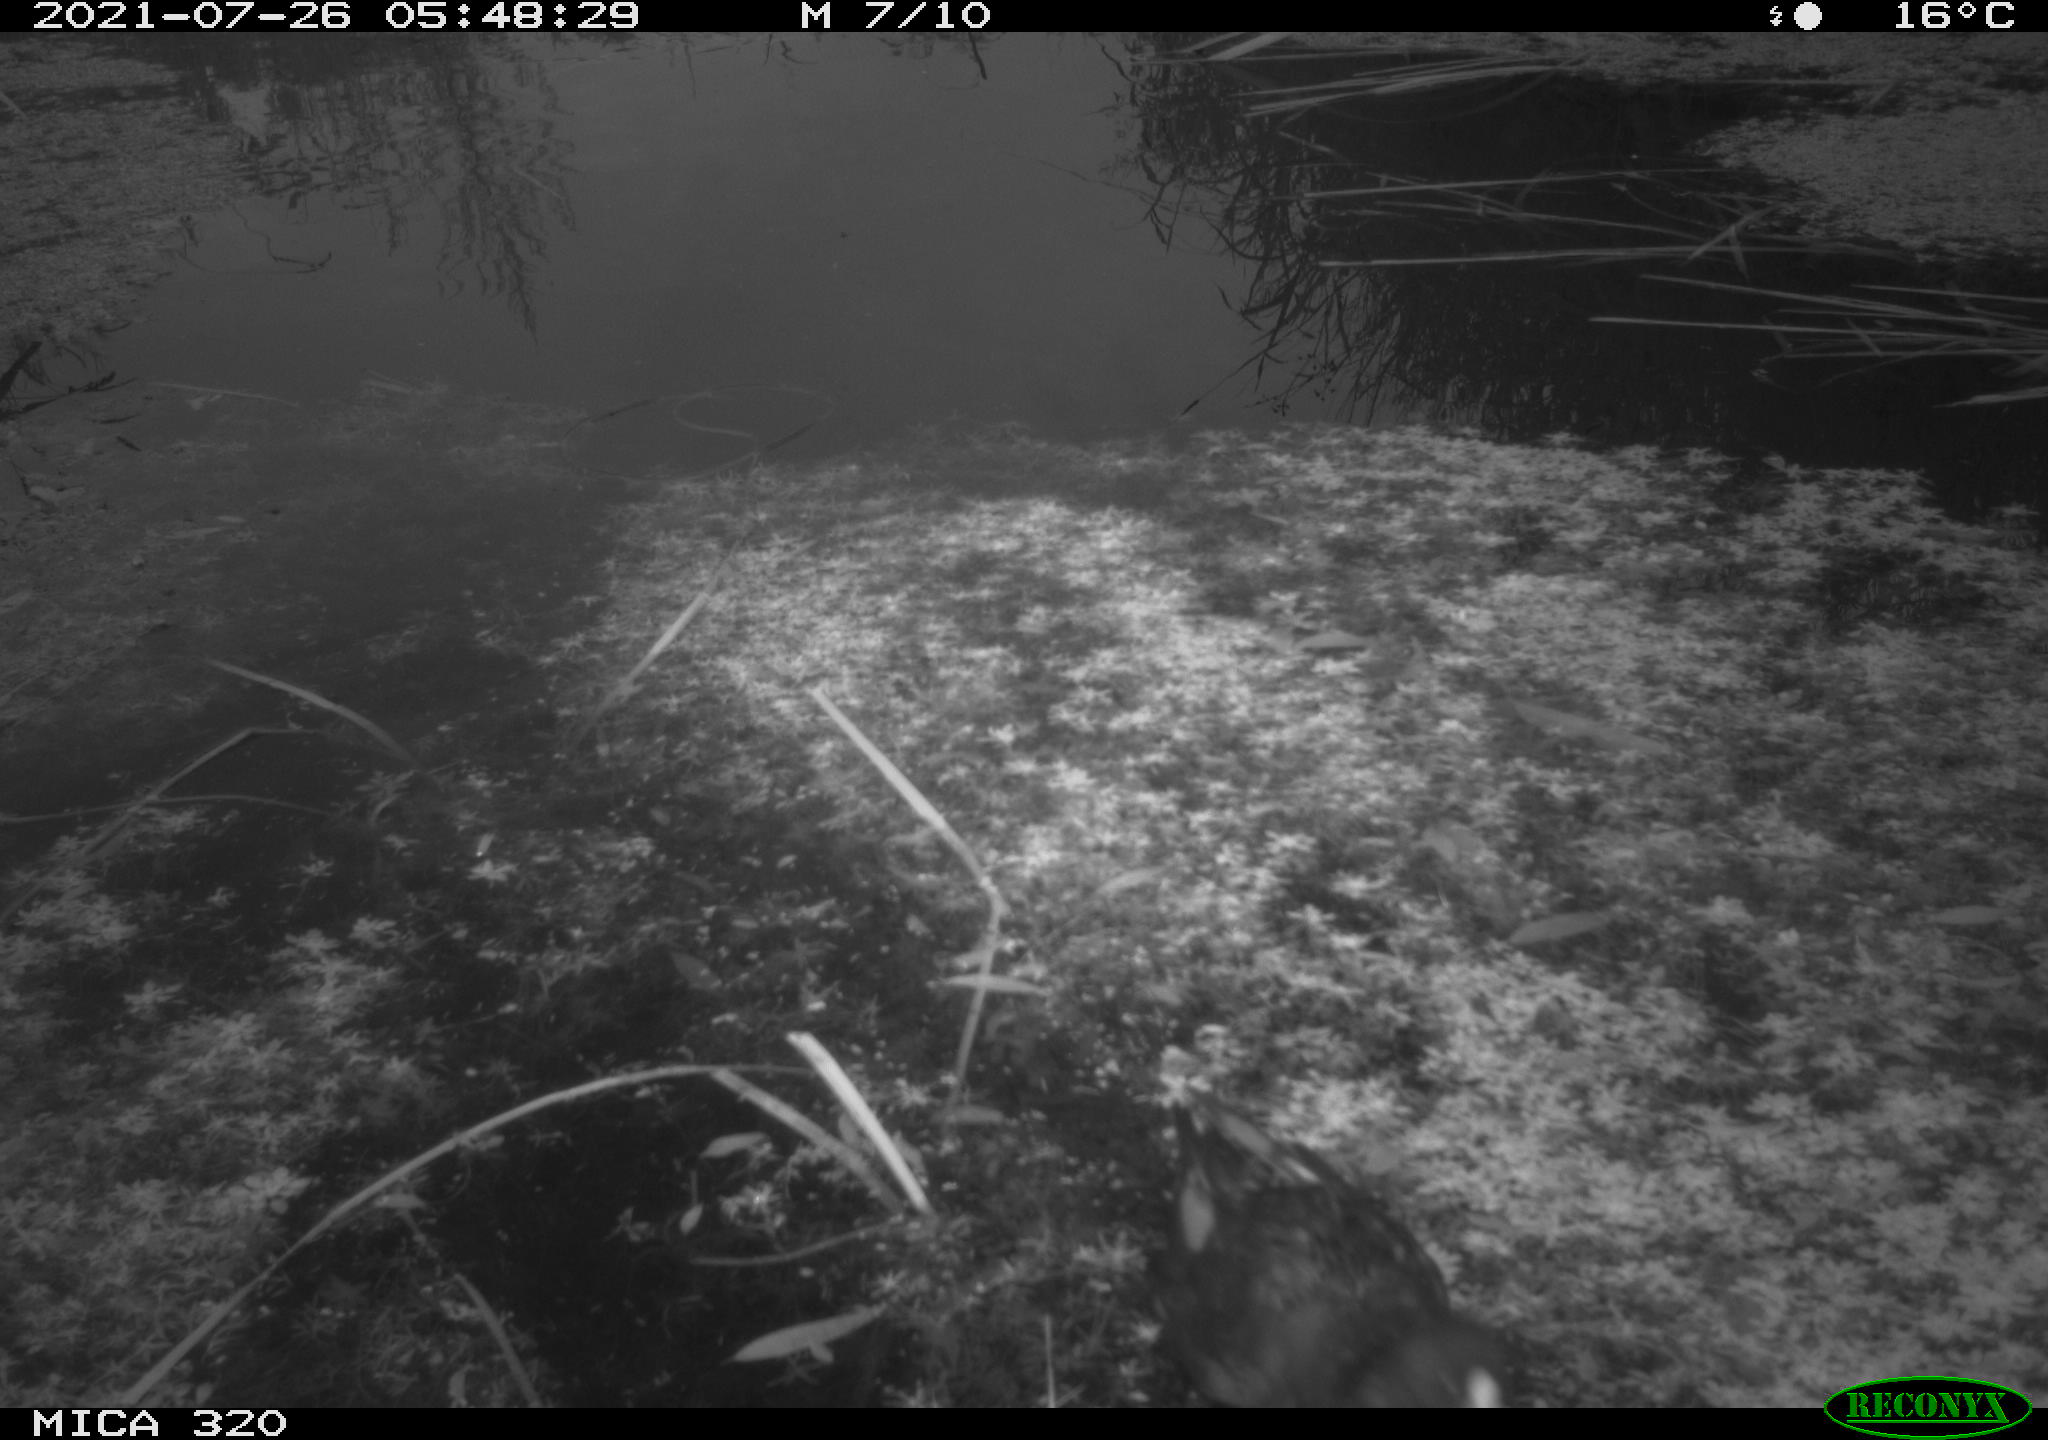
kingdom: Animalia
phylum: Chordata
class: Aves
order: Gruiformes
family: Rallidae
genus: Fulica
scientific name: Fulica atra
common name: Eurasian coot
